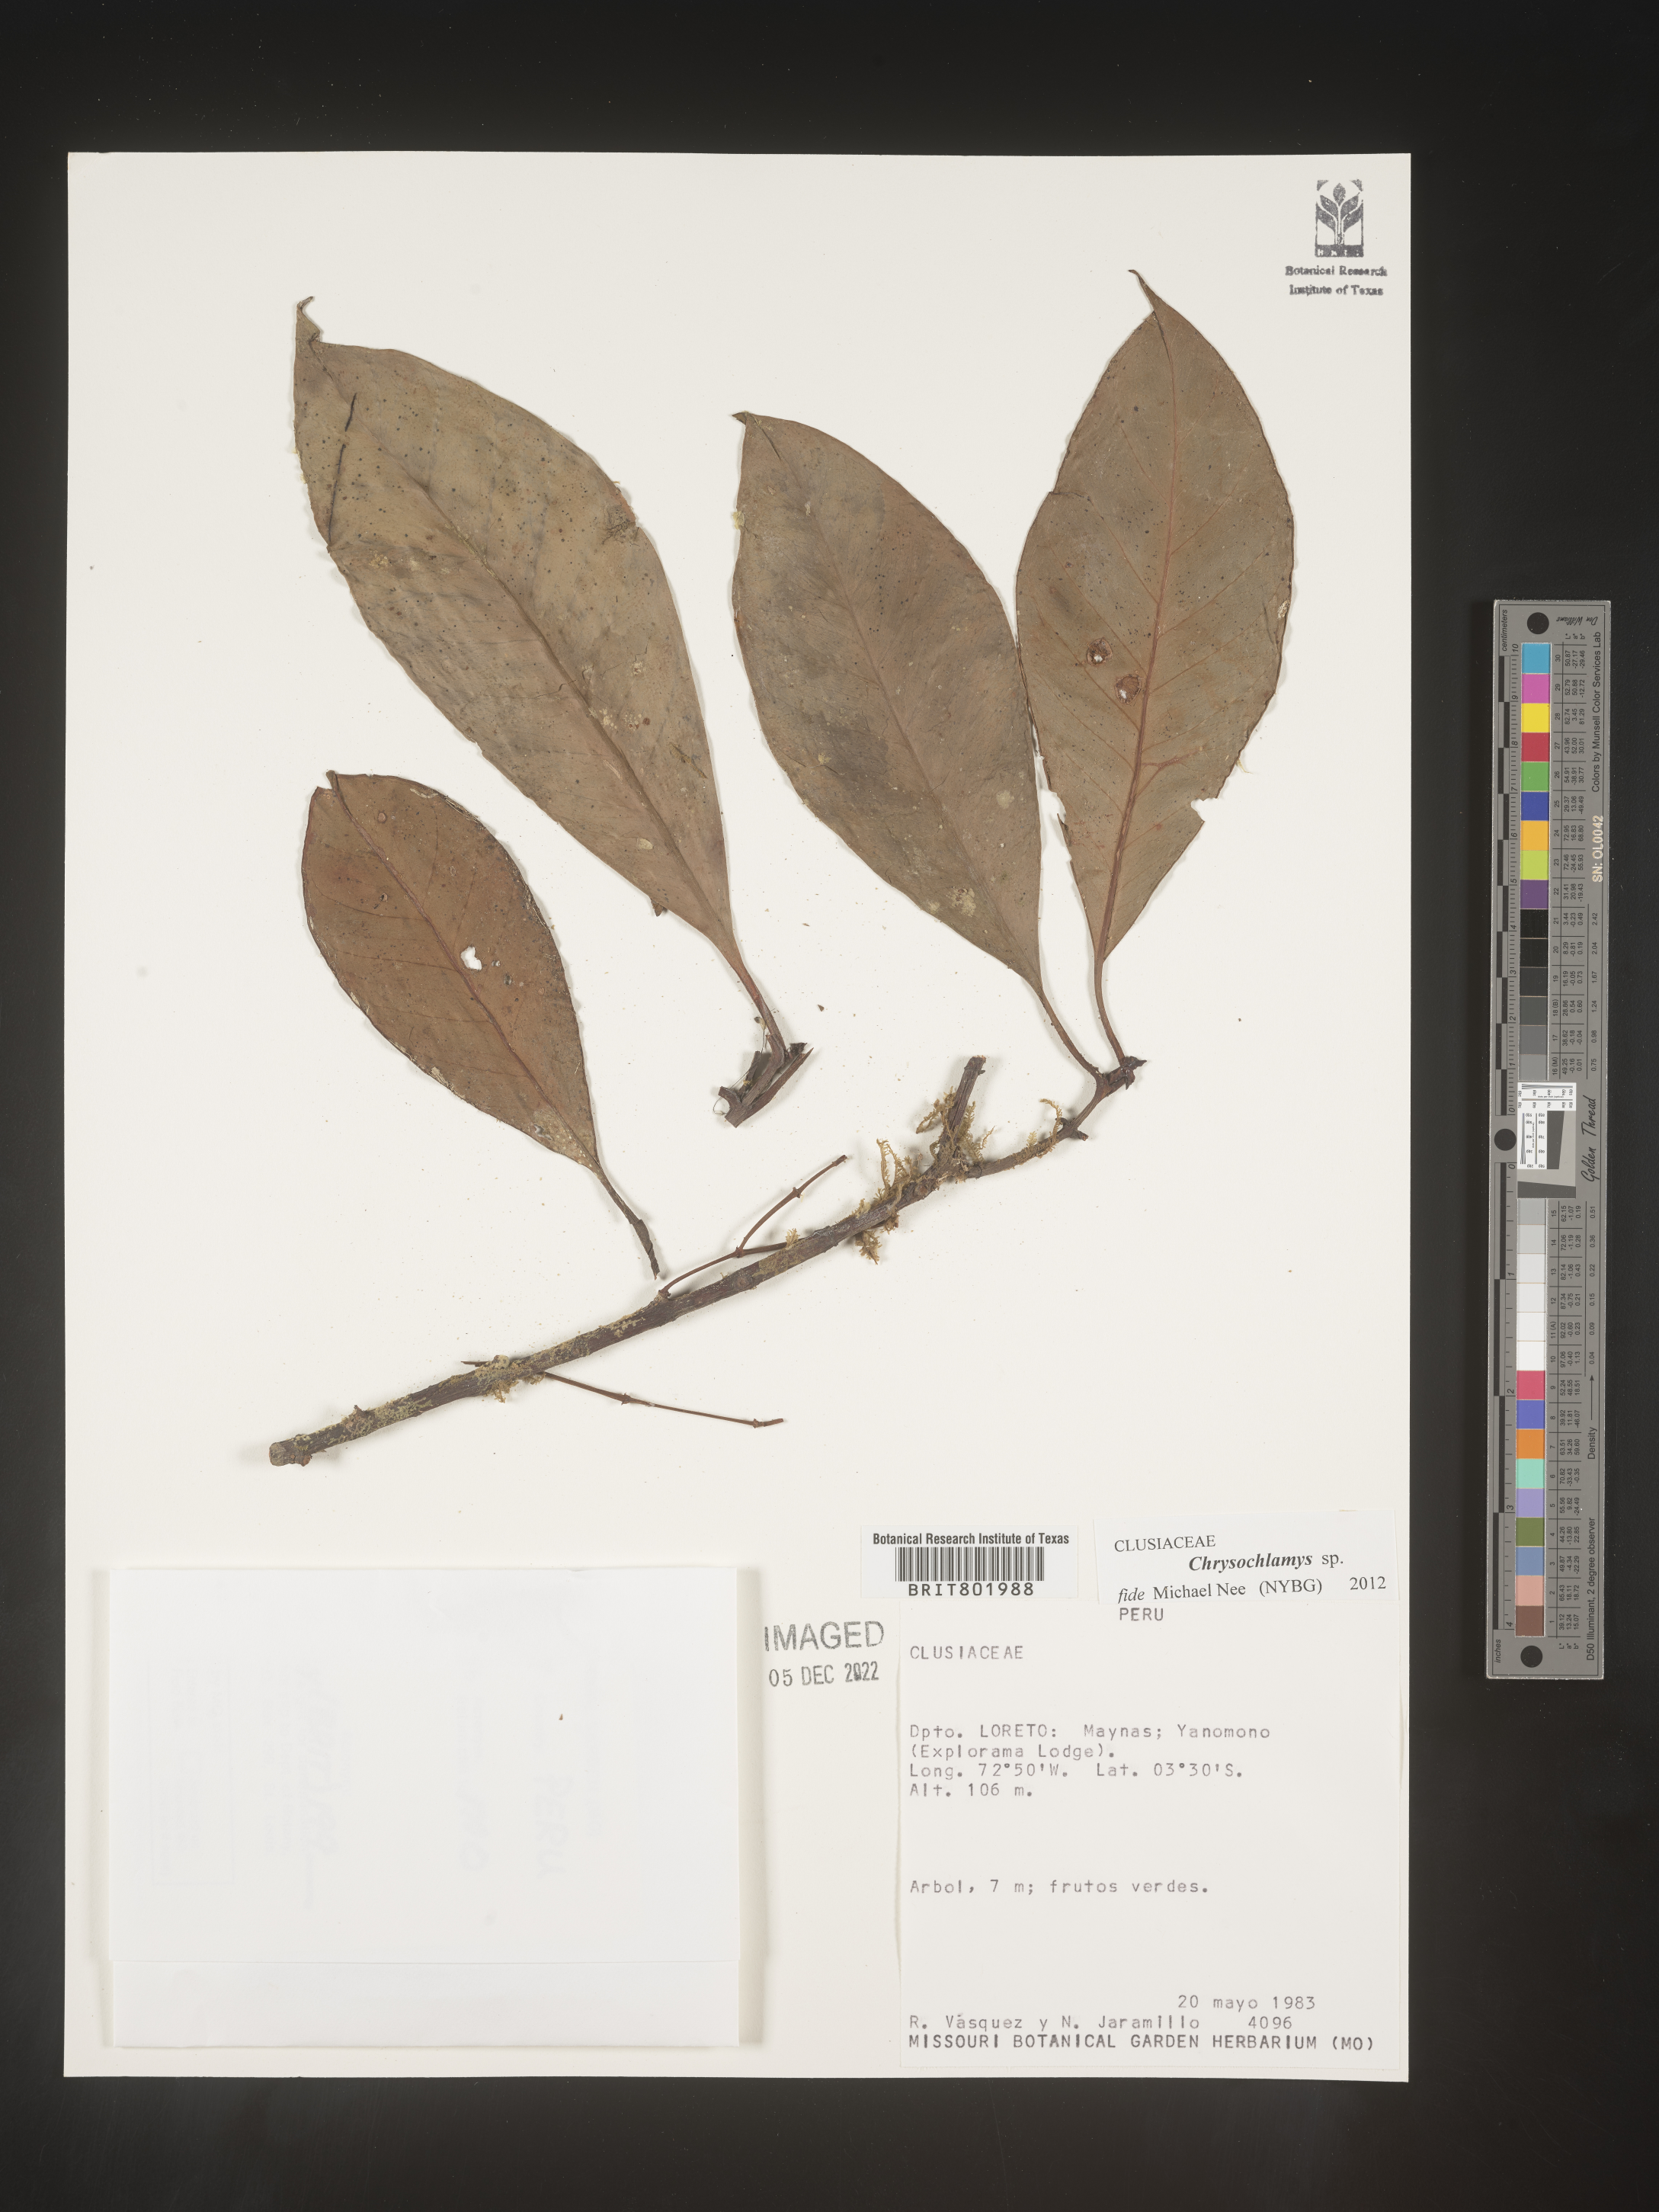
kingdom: Plantae
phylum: Tracheophyta
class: Magnoliopsida
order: Malpighiales
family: Clusiaceae
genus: Chrysochlamys
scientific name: Chrysochlamys
